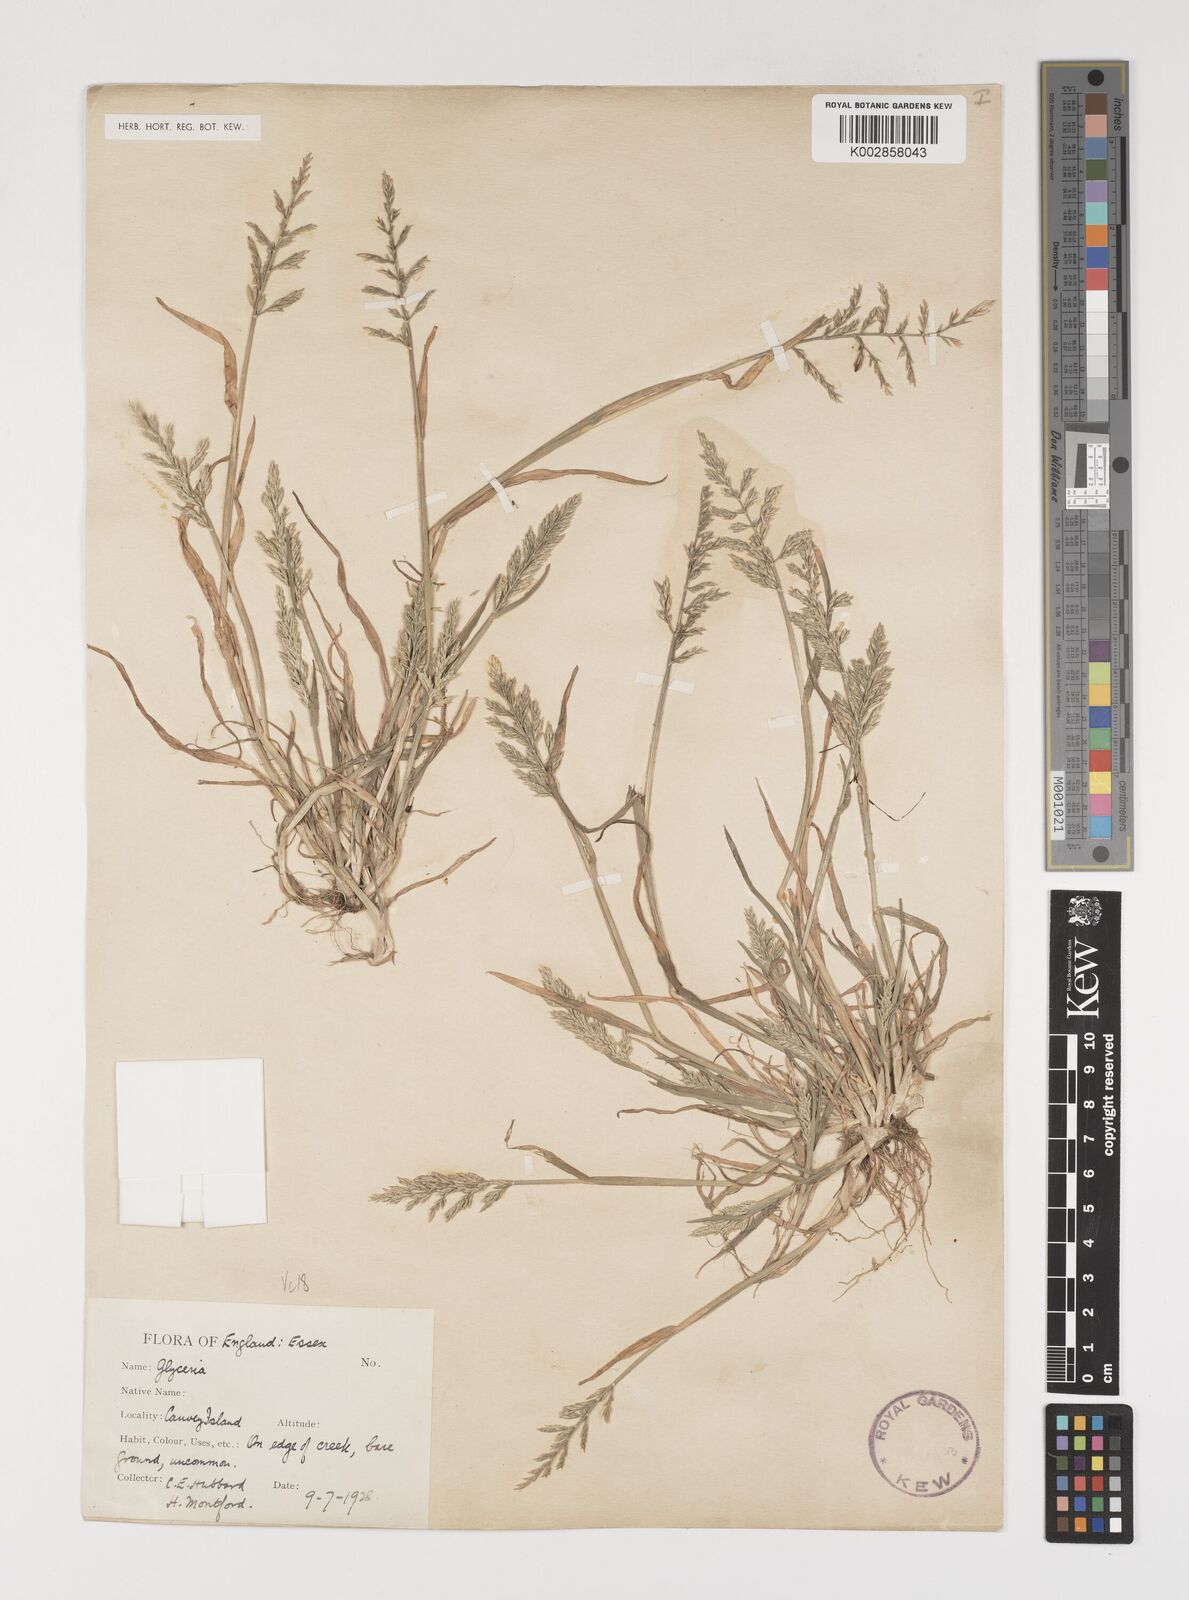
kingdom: Plantae
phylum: Tracheophyta
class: Liliopsida
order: Poales
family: Poaceae
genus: Puccinellia
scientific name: Puccinellia rupestris
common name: Stiff saltmarsh-grass
